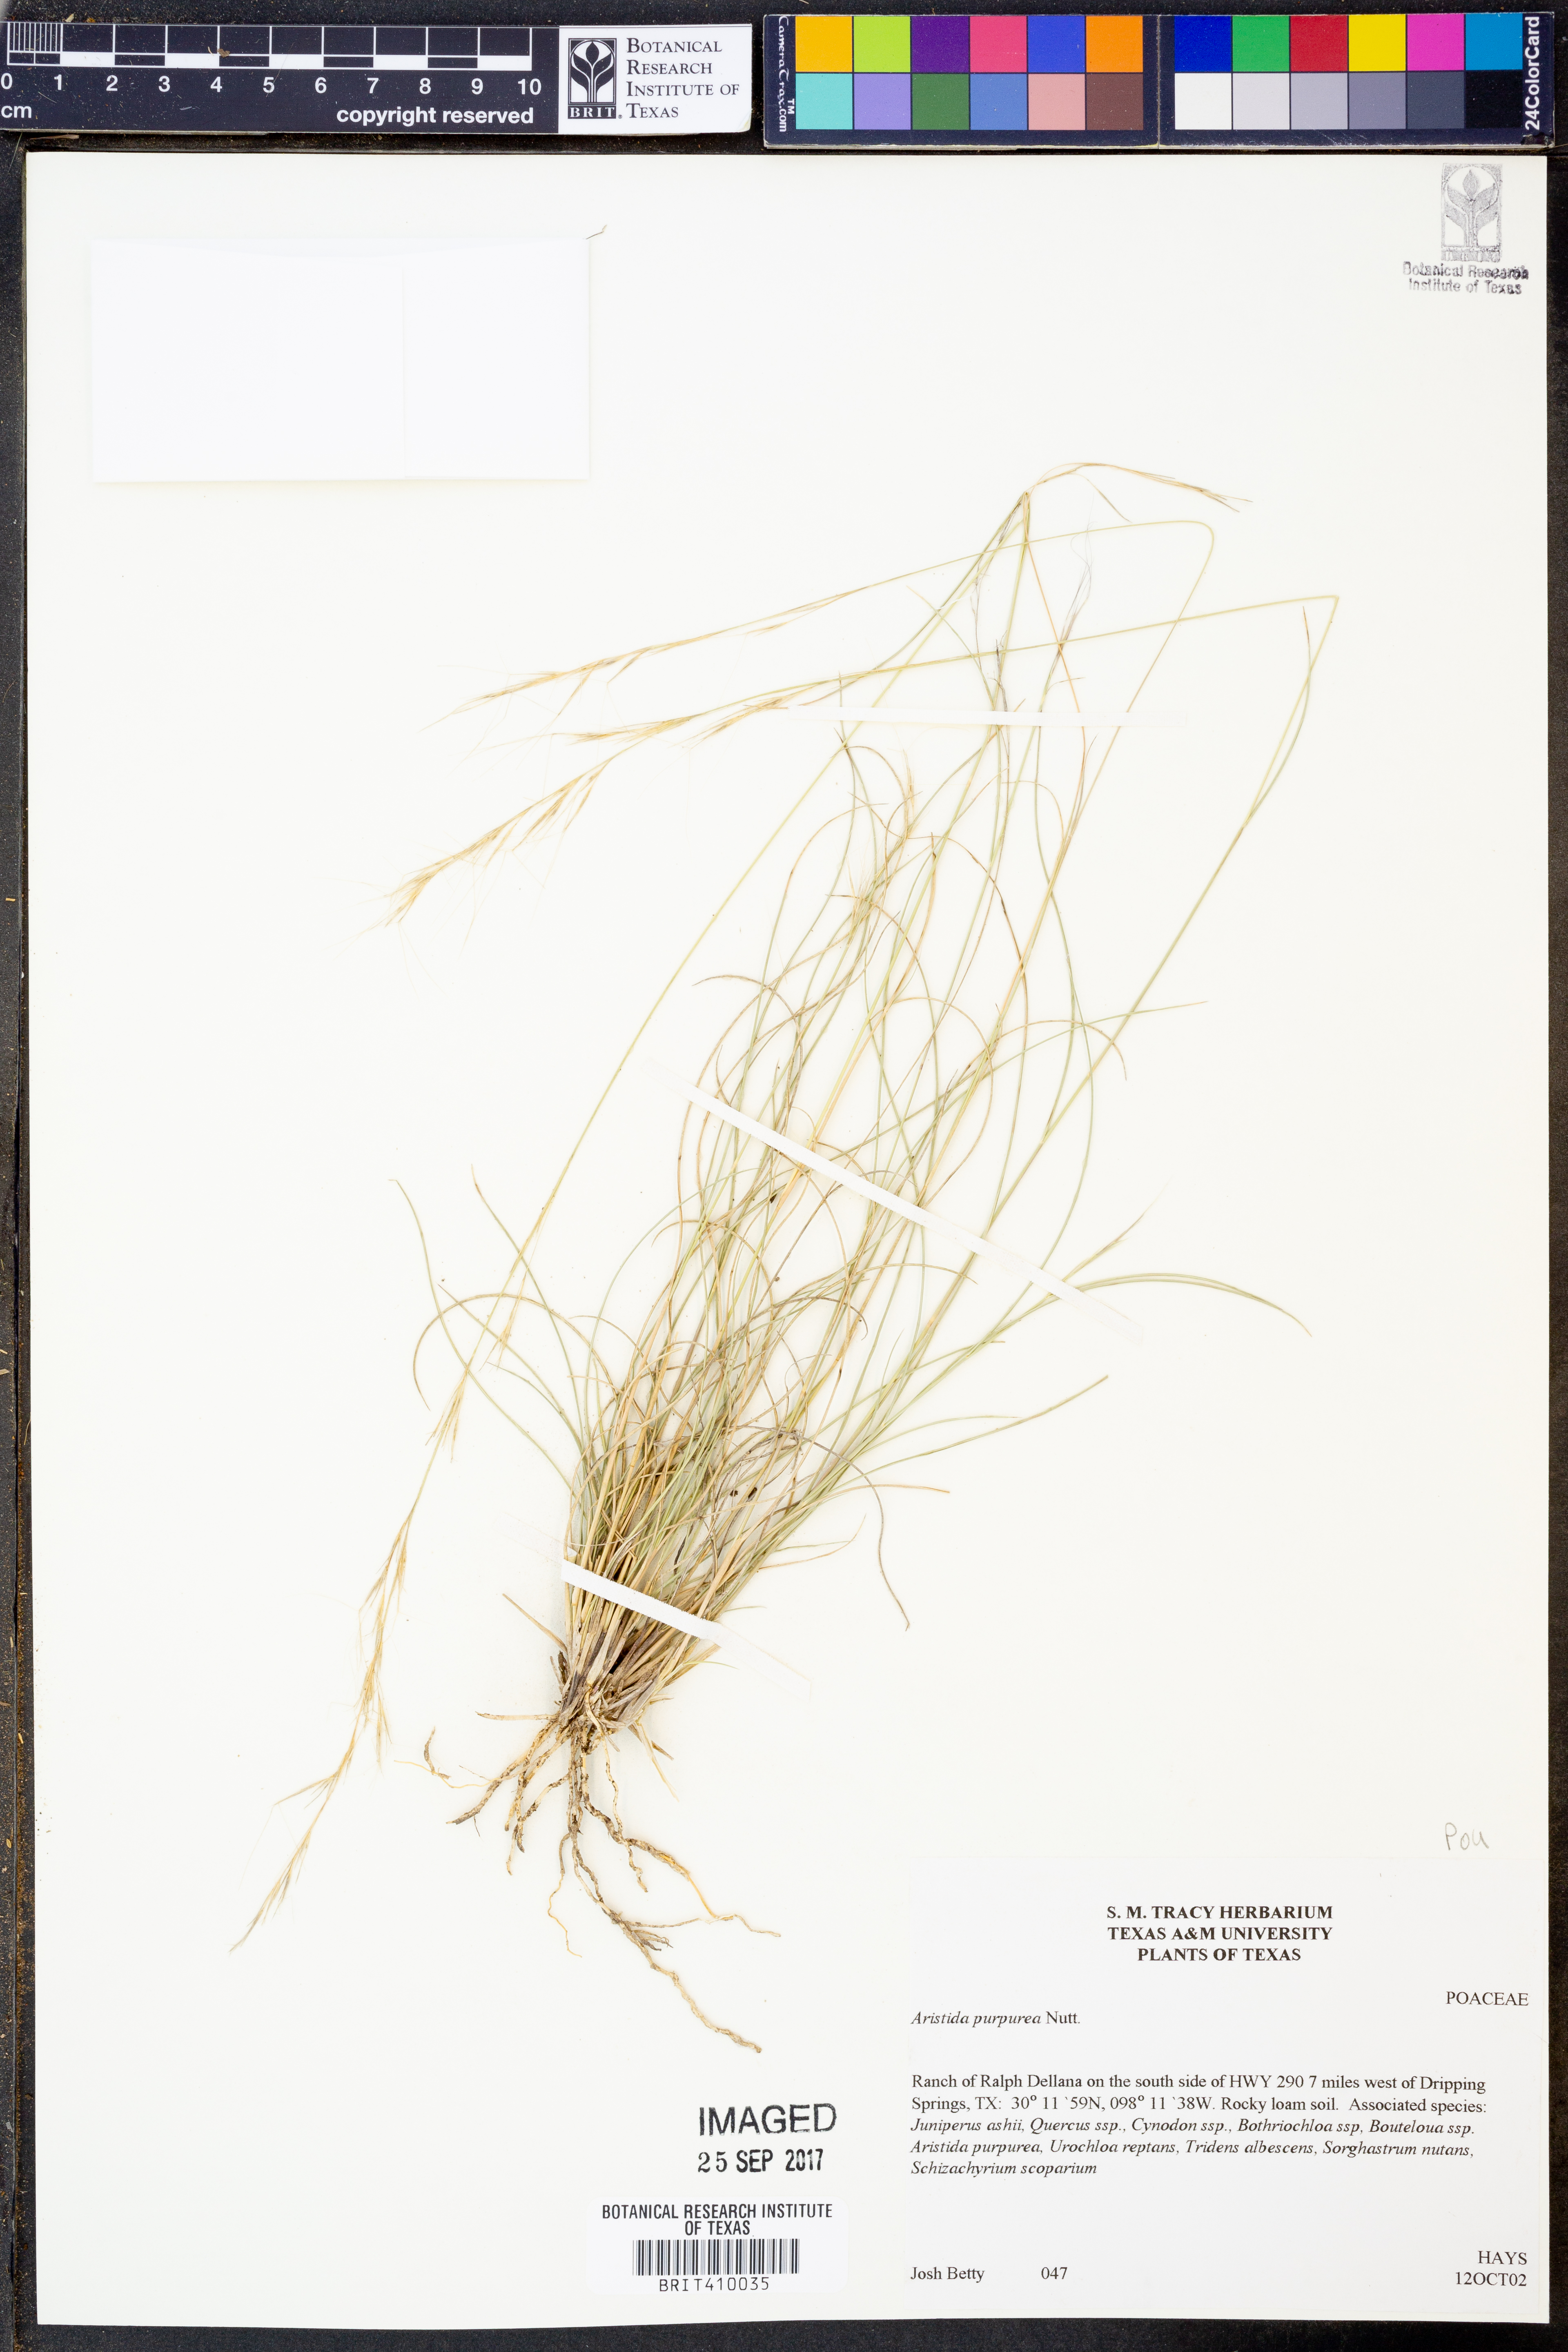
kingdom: Plantae
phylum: Tracheophyta
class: Liliopsida
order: Poales
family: Poaceae
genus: Aristida
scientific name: Aristida purpurea
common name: Purple threeawn
